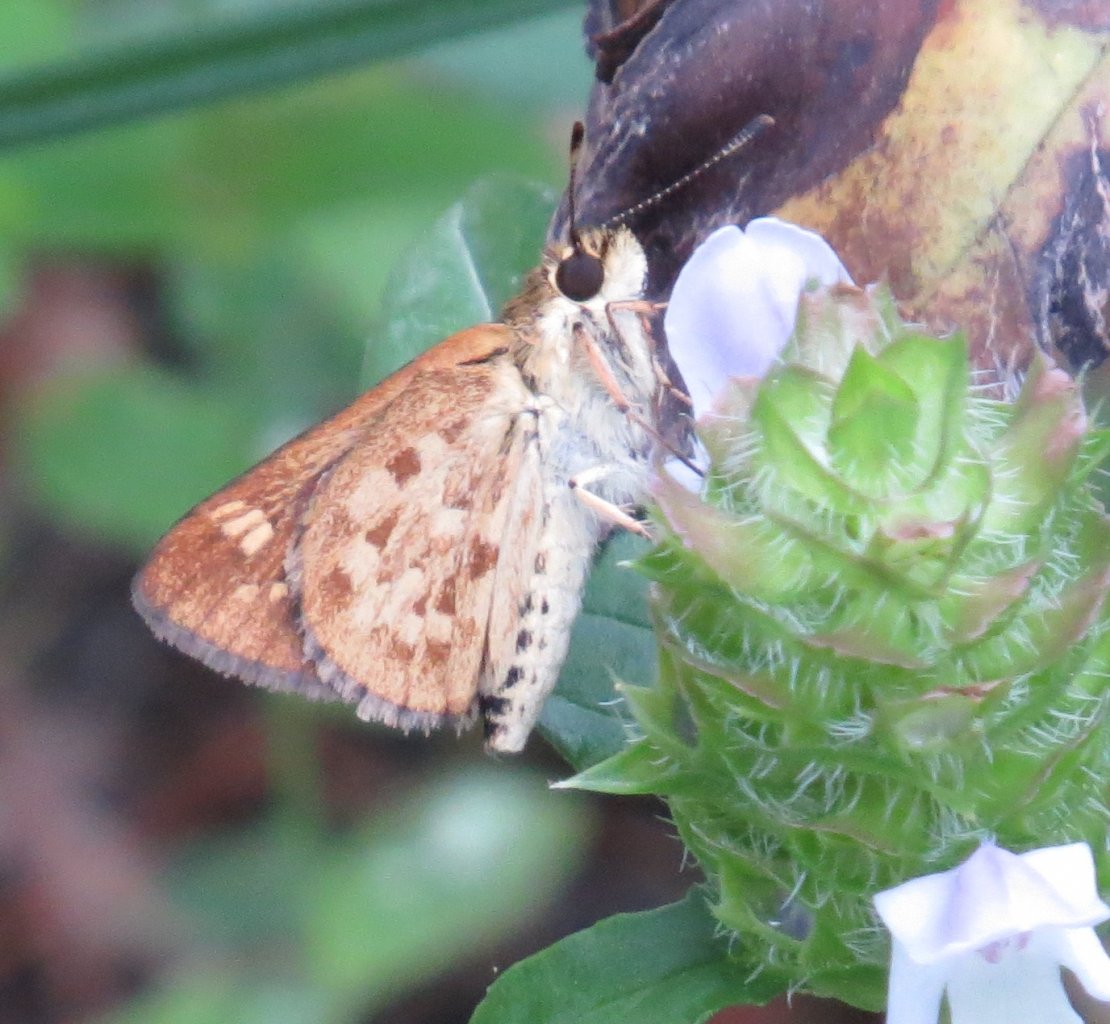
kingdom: Animalia
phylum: Arthropoda
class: Insecta
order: Lepidoptera
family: Hesperiidae
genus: Mastor
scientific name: Mastor carolina
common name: Carolina Roadside-Skipper
